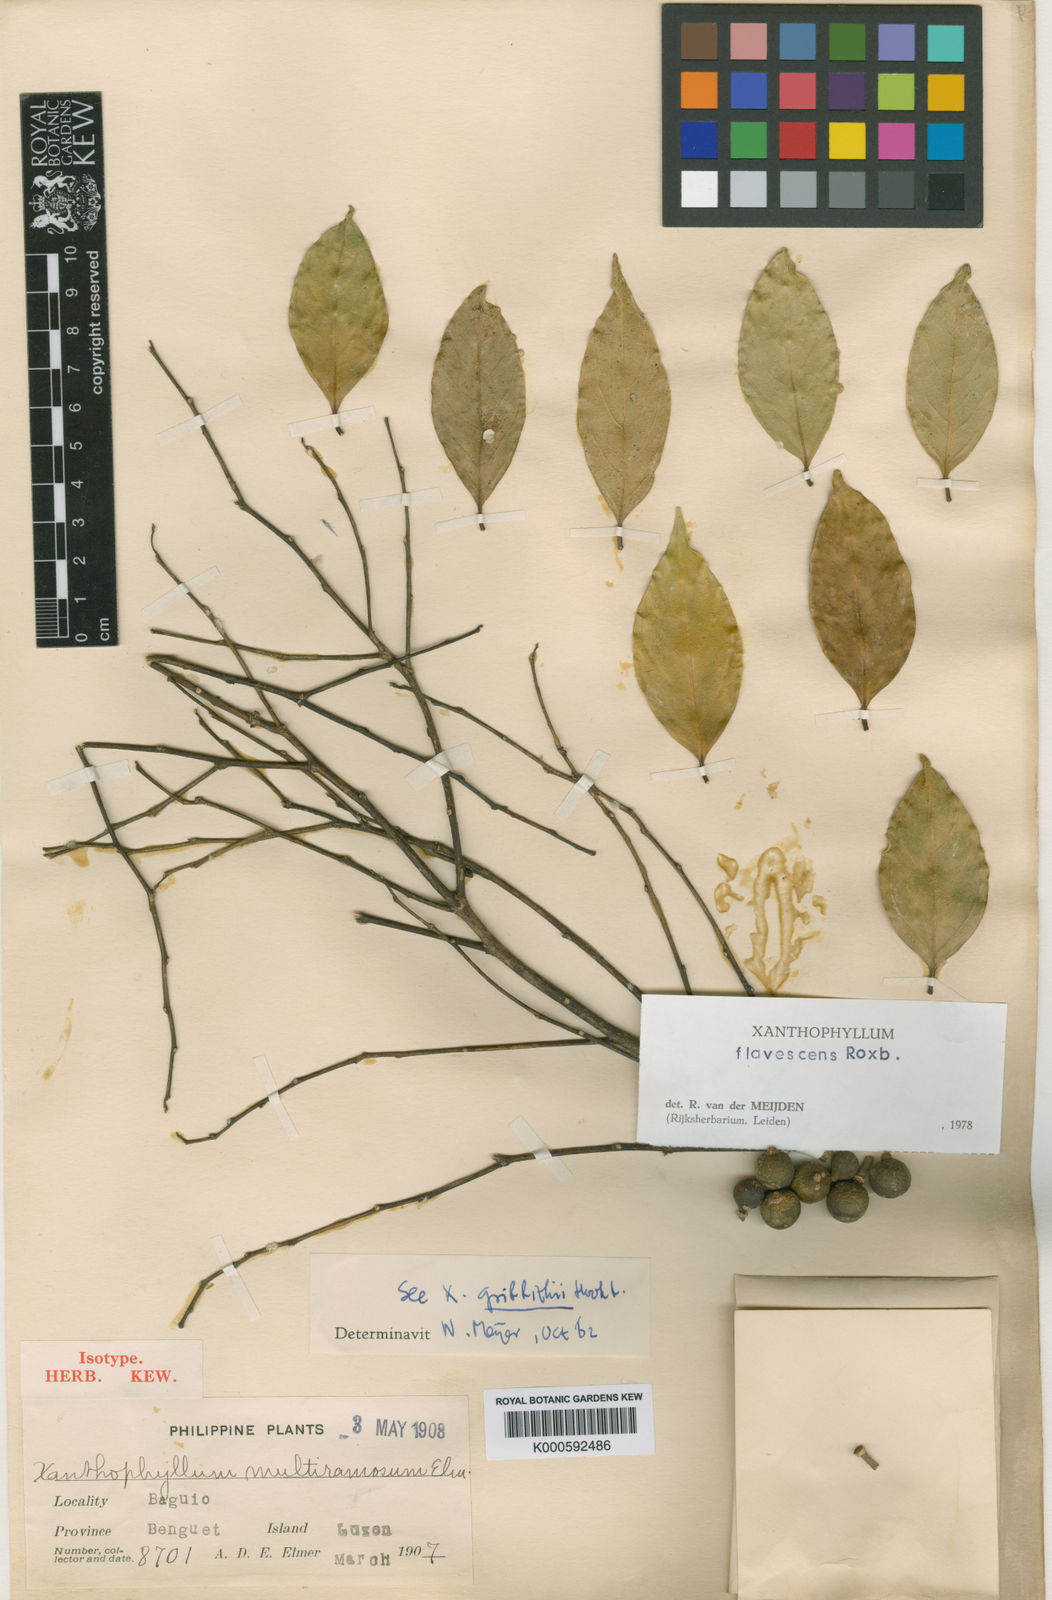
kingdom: Plantae
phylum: Tracheophyta
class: Magnoliopsida
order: Fabales
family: Polygalaceae
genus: Xanthophyllum
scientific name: Xanthophyllum flavescens
